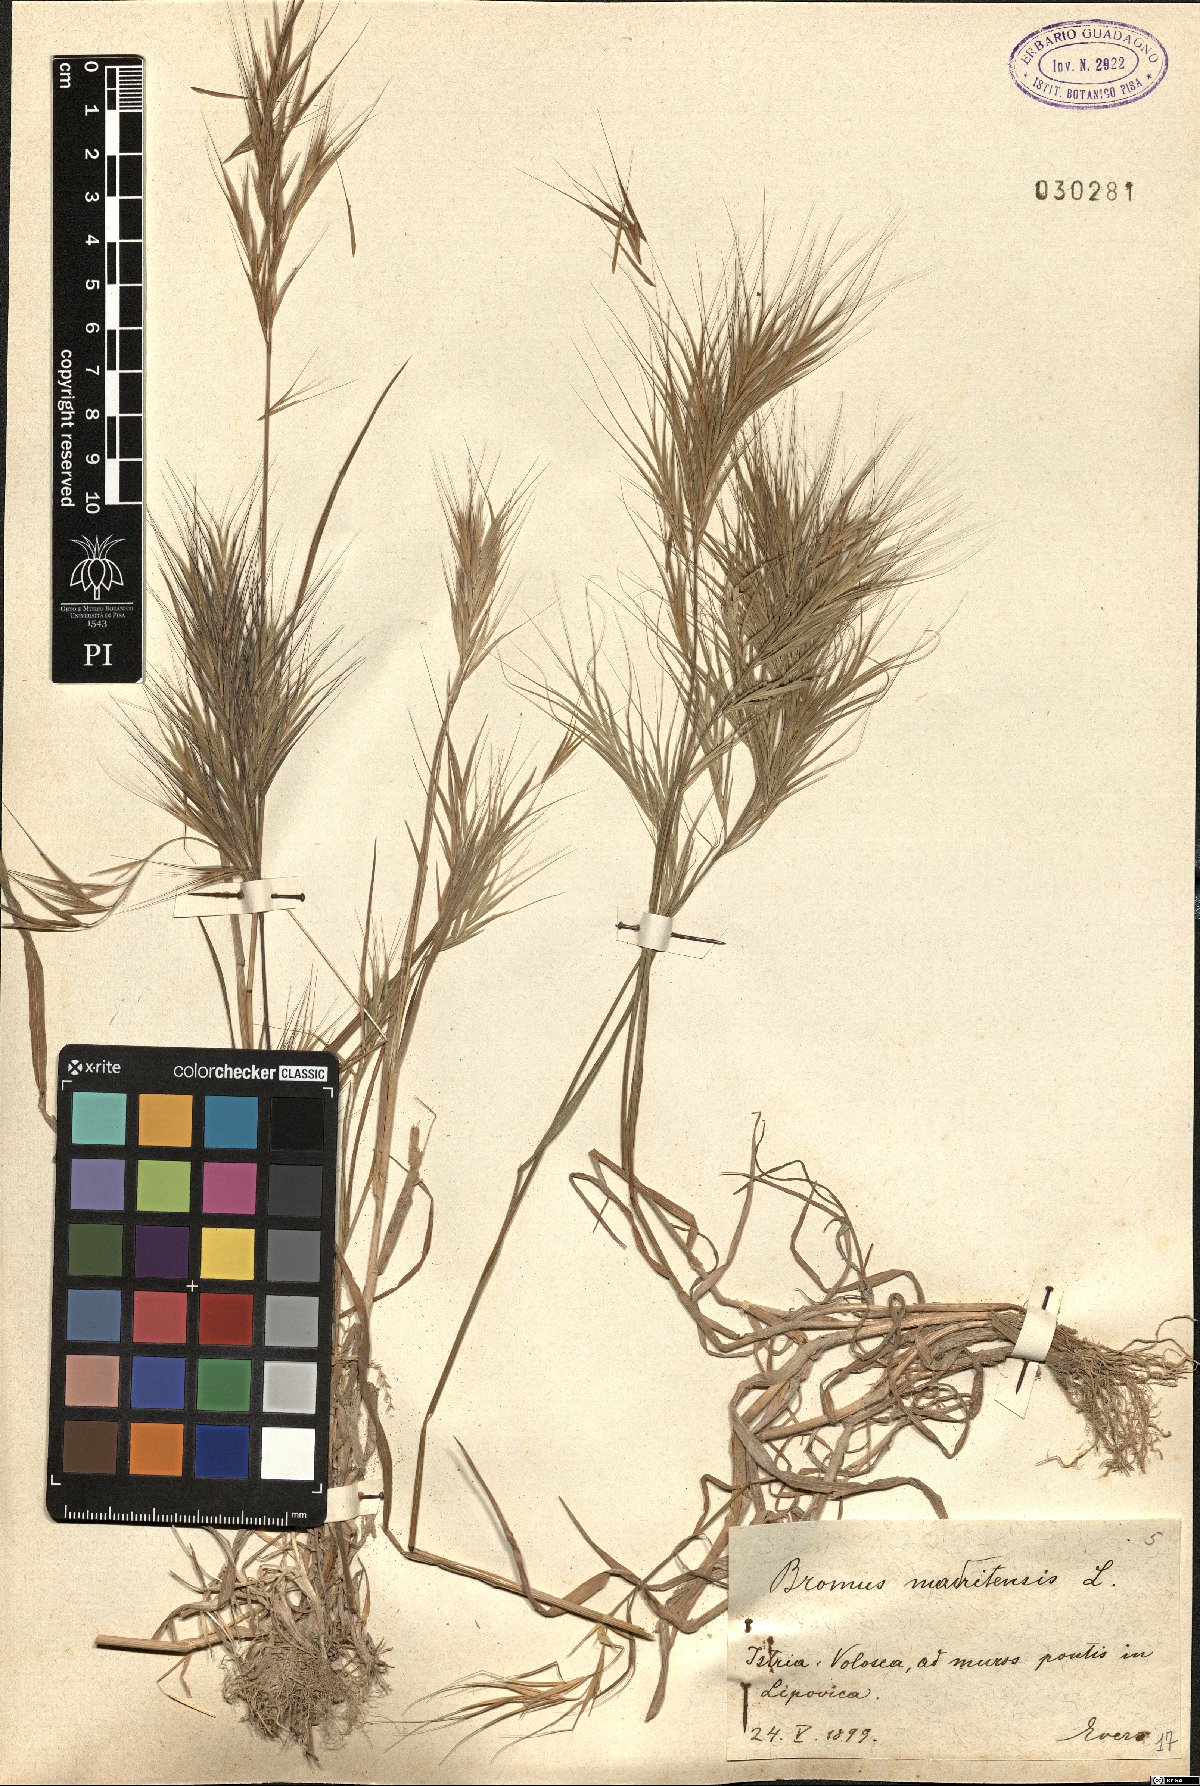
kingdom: Plantae
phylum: Tracheophyta
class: Liliopsida
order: Poales
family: Poaceae
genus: Bromus
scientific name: Bromus madritensis
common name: Compact brome
